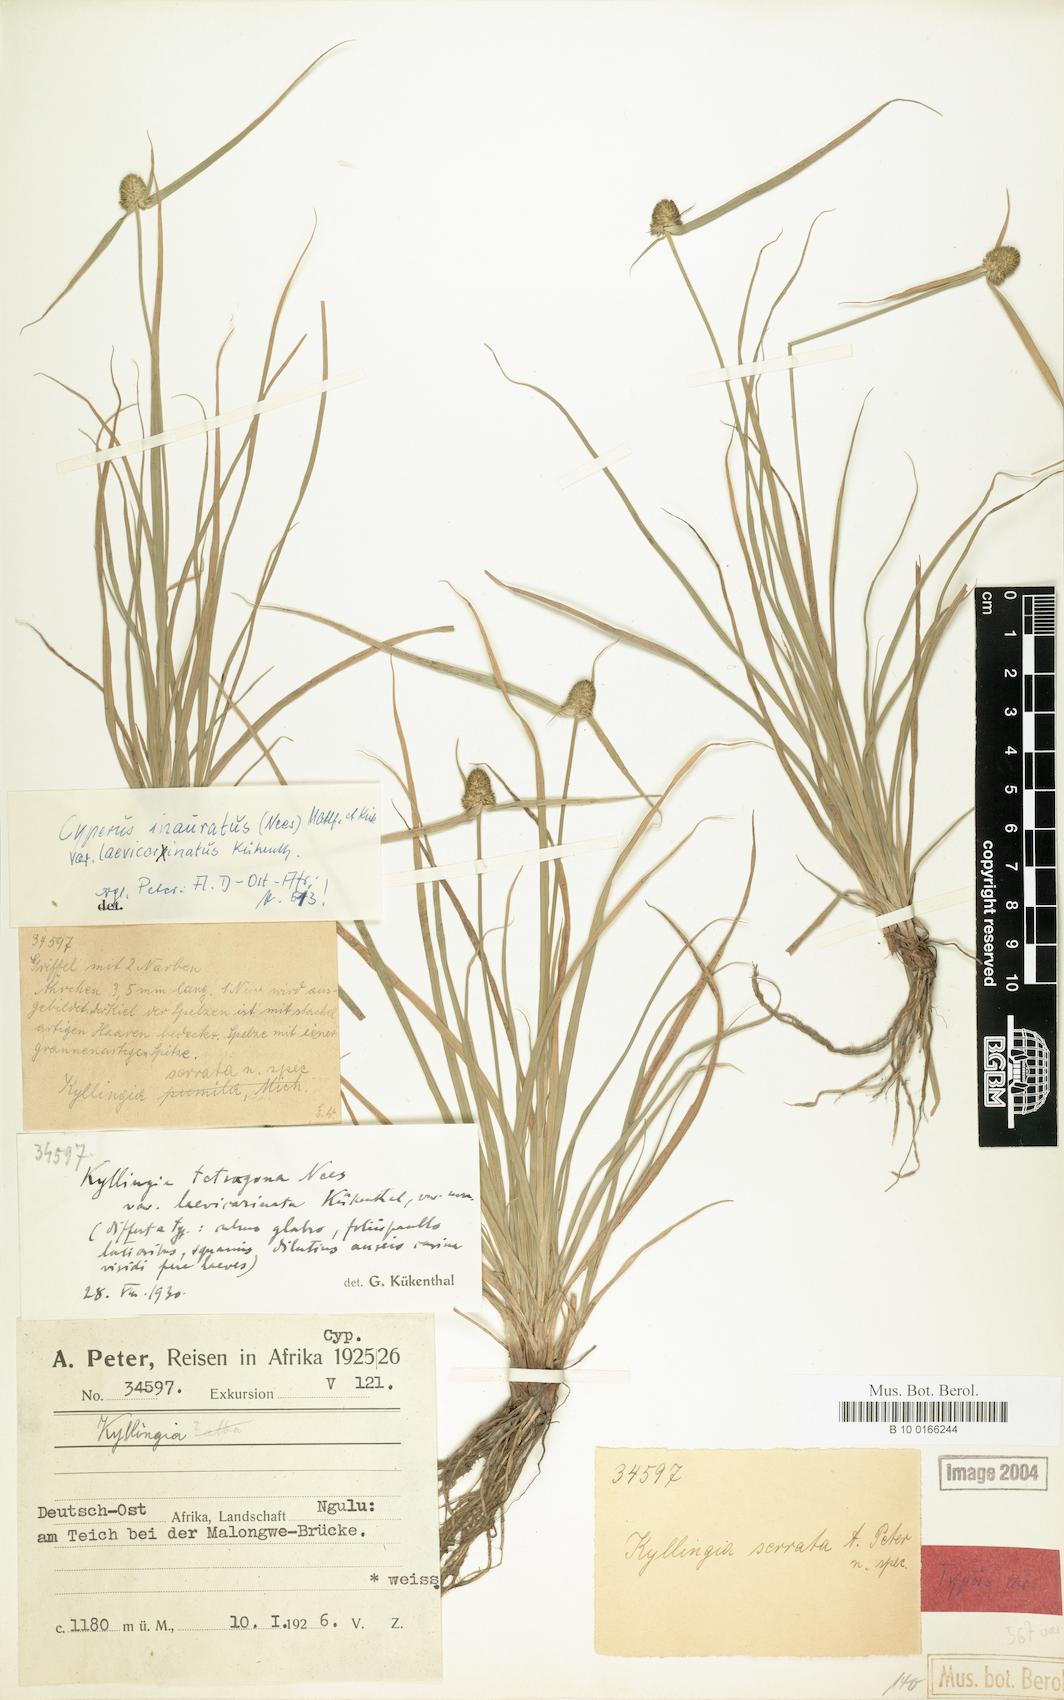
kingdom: Plantae
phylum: Tracheophyta
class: Liliopsida
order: Poales
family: Cyperaceae
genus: Cyperus
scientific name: Cyperus inauratus
